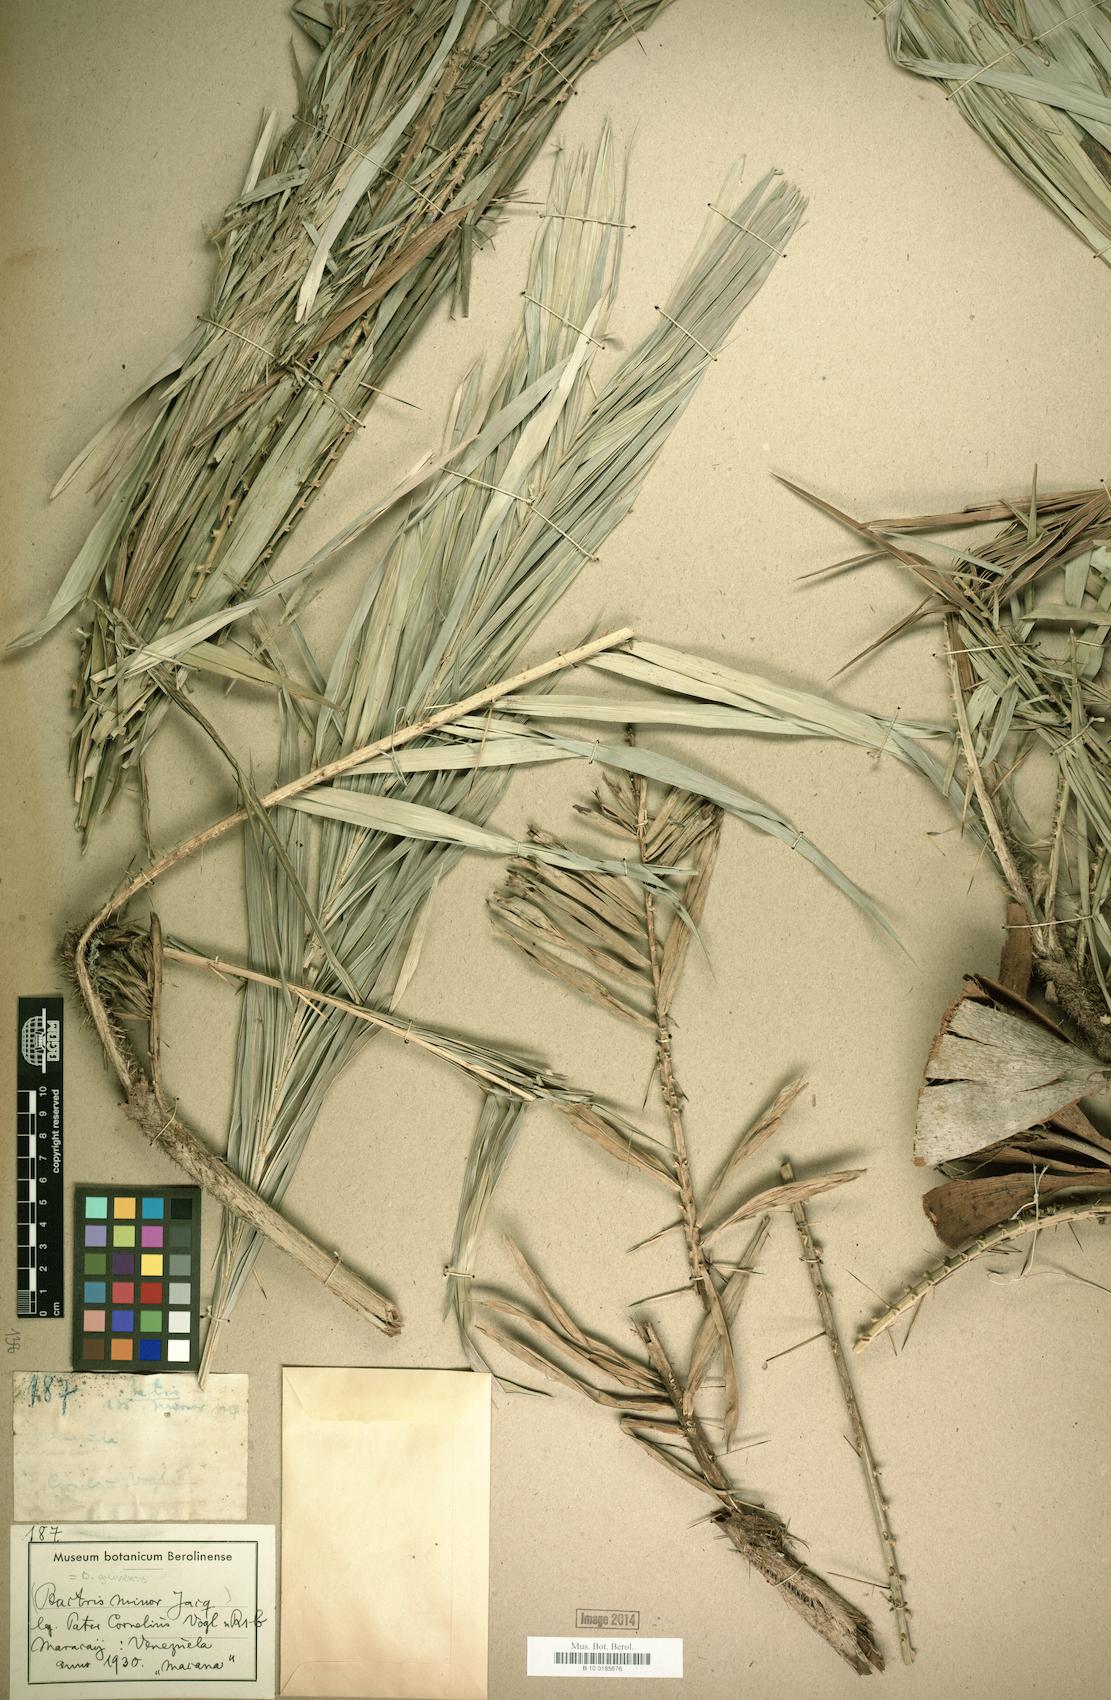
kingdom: Plantae
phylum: Tracheophyta
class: Liliopsida
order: Arecales
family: Arecaceae
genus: Bactris
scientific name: Bactris guineensis
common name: Tobago cane
